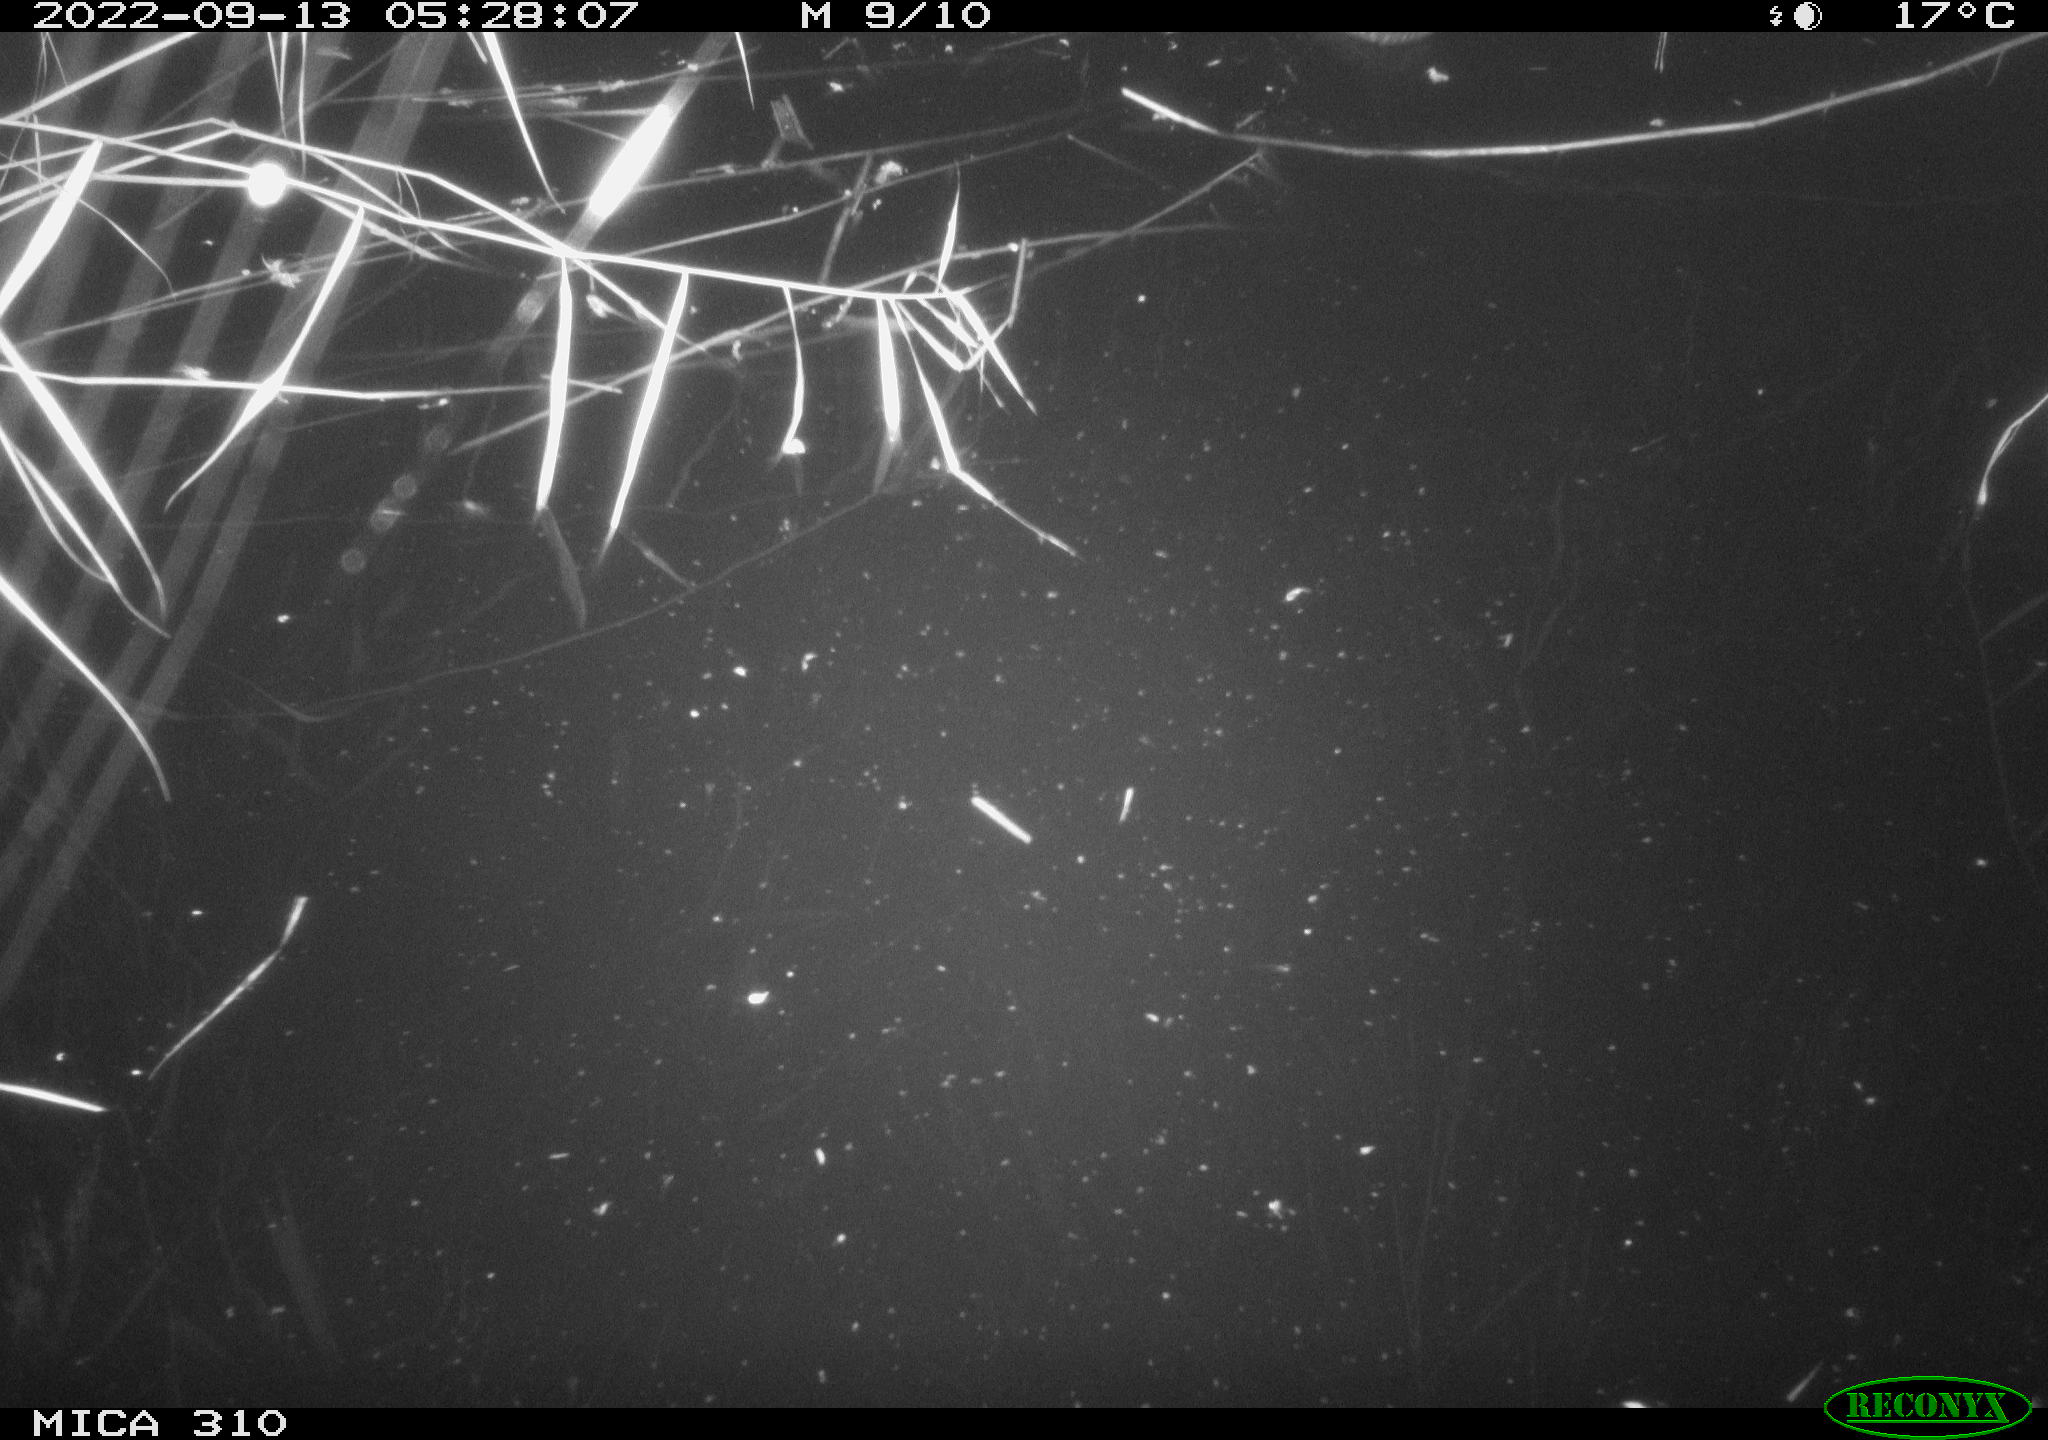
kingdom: Animalia
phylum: Chordata
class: Aves
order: Anseriformes
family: Anatidae
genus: Anas
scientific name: Anas
